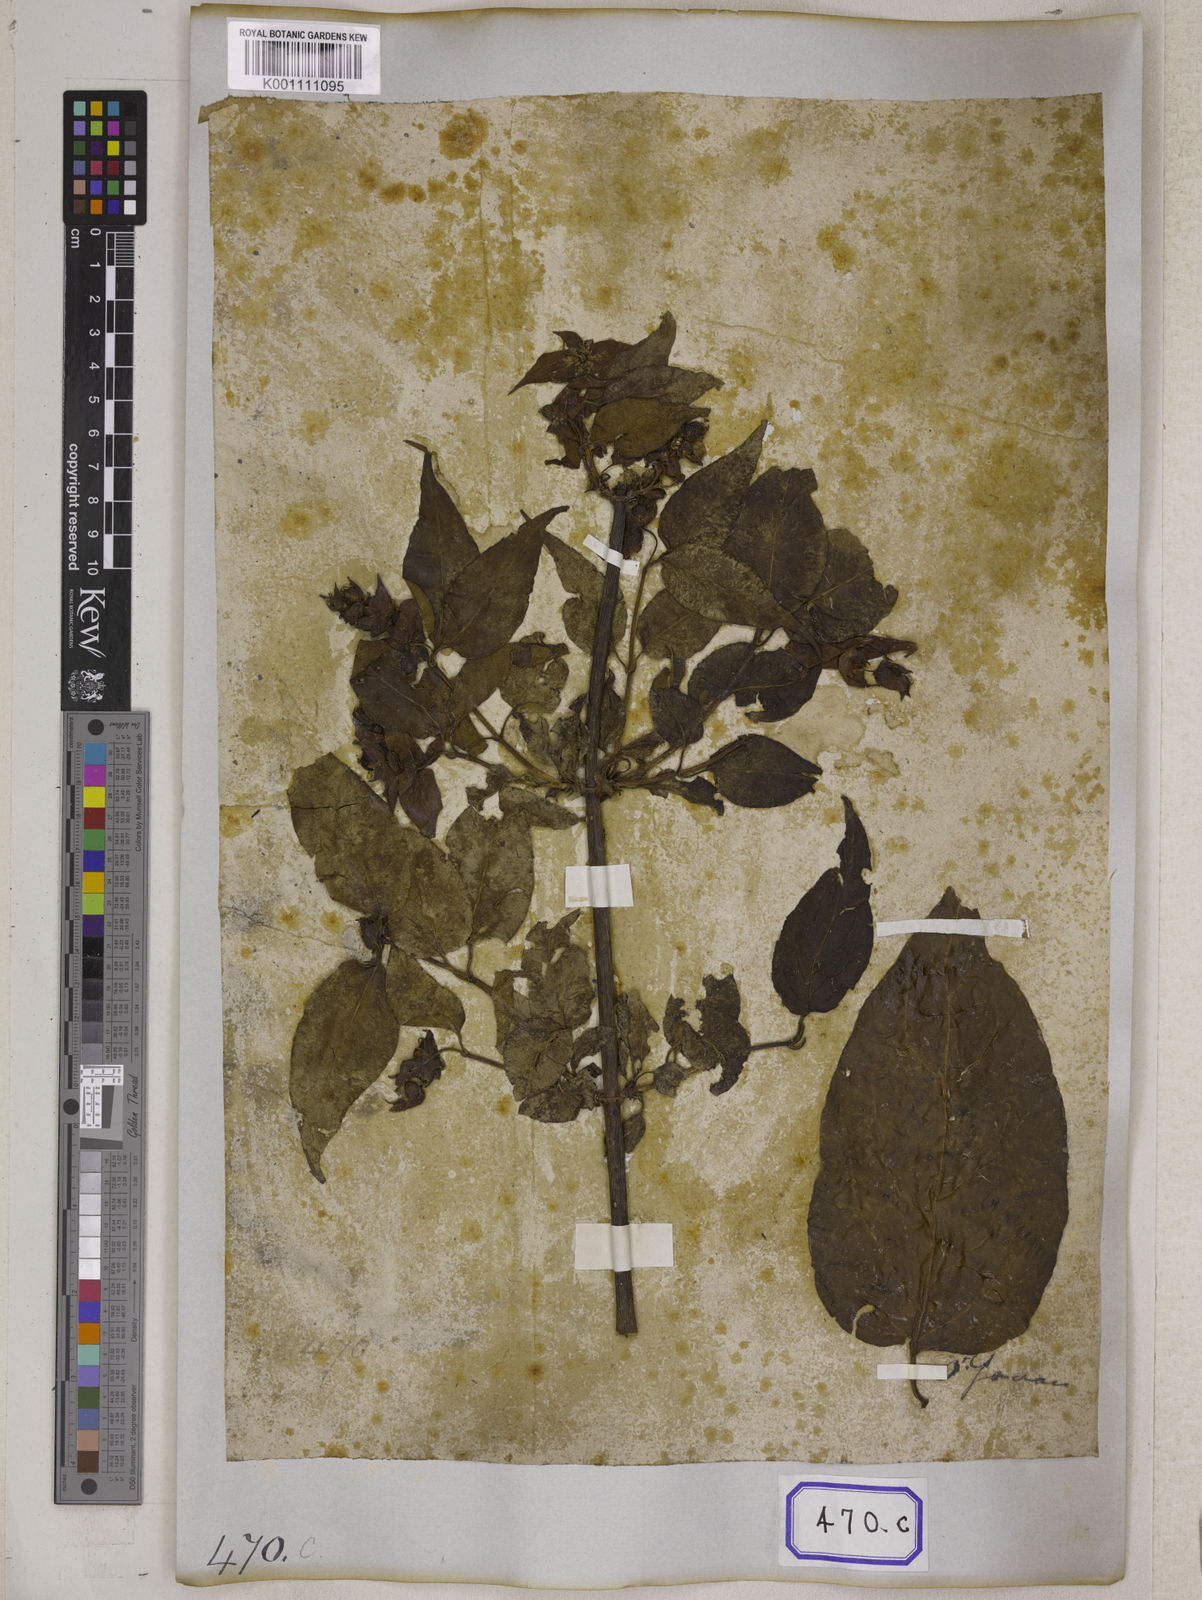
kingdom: Plantae
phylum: Tracheophyta
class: Magnoliopsida
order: Dipsacales
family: Caprifoliaceae
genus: Leycesteria
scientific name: Leycesteria formosa
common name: Himalayan honeysuckle
